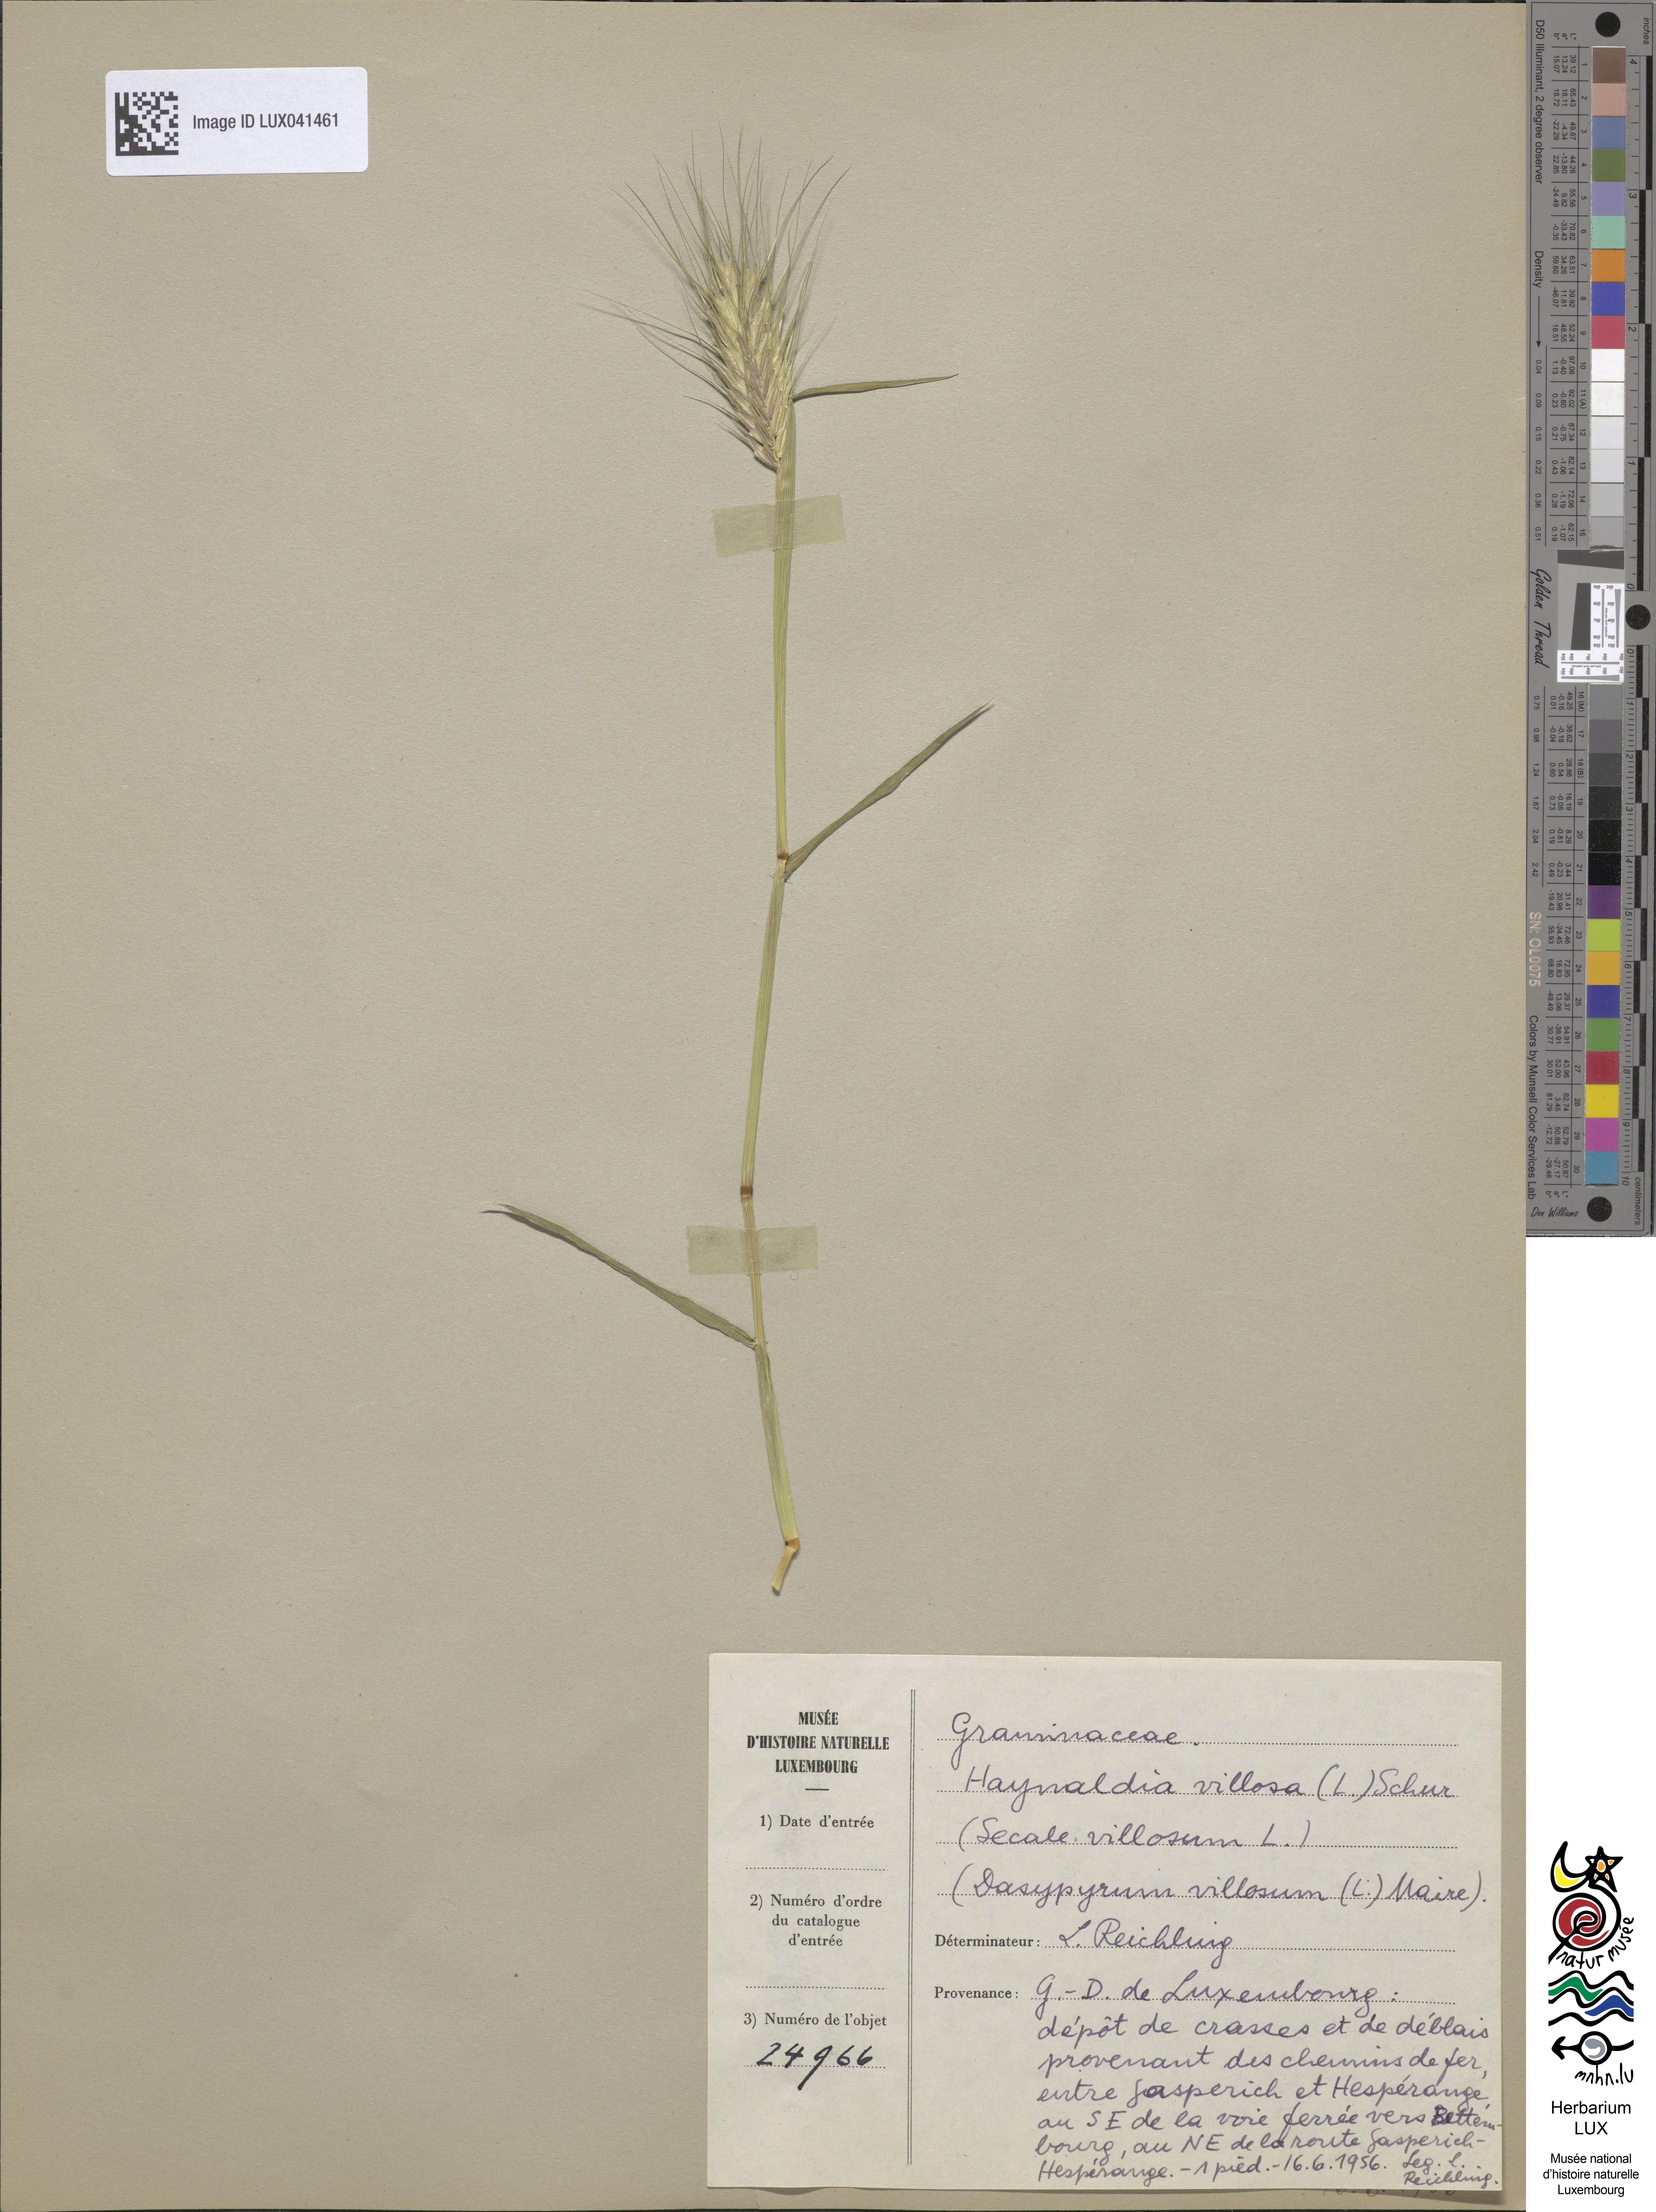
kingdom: Plantae
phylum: Tracheophyta
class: Liliopsida
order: Poales
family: Poaceae
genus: Dasypyrum
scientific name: Dasypyrum villosum
